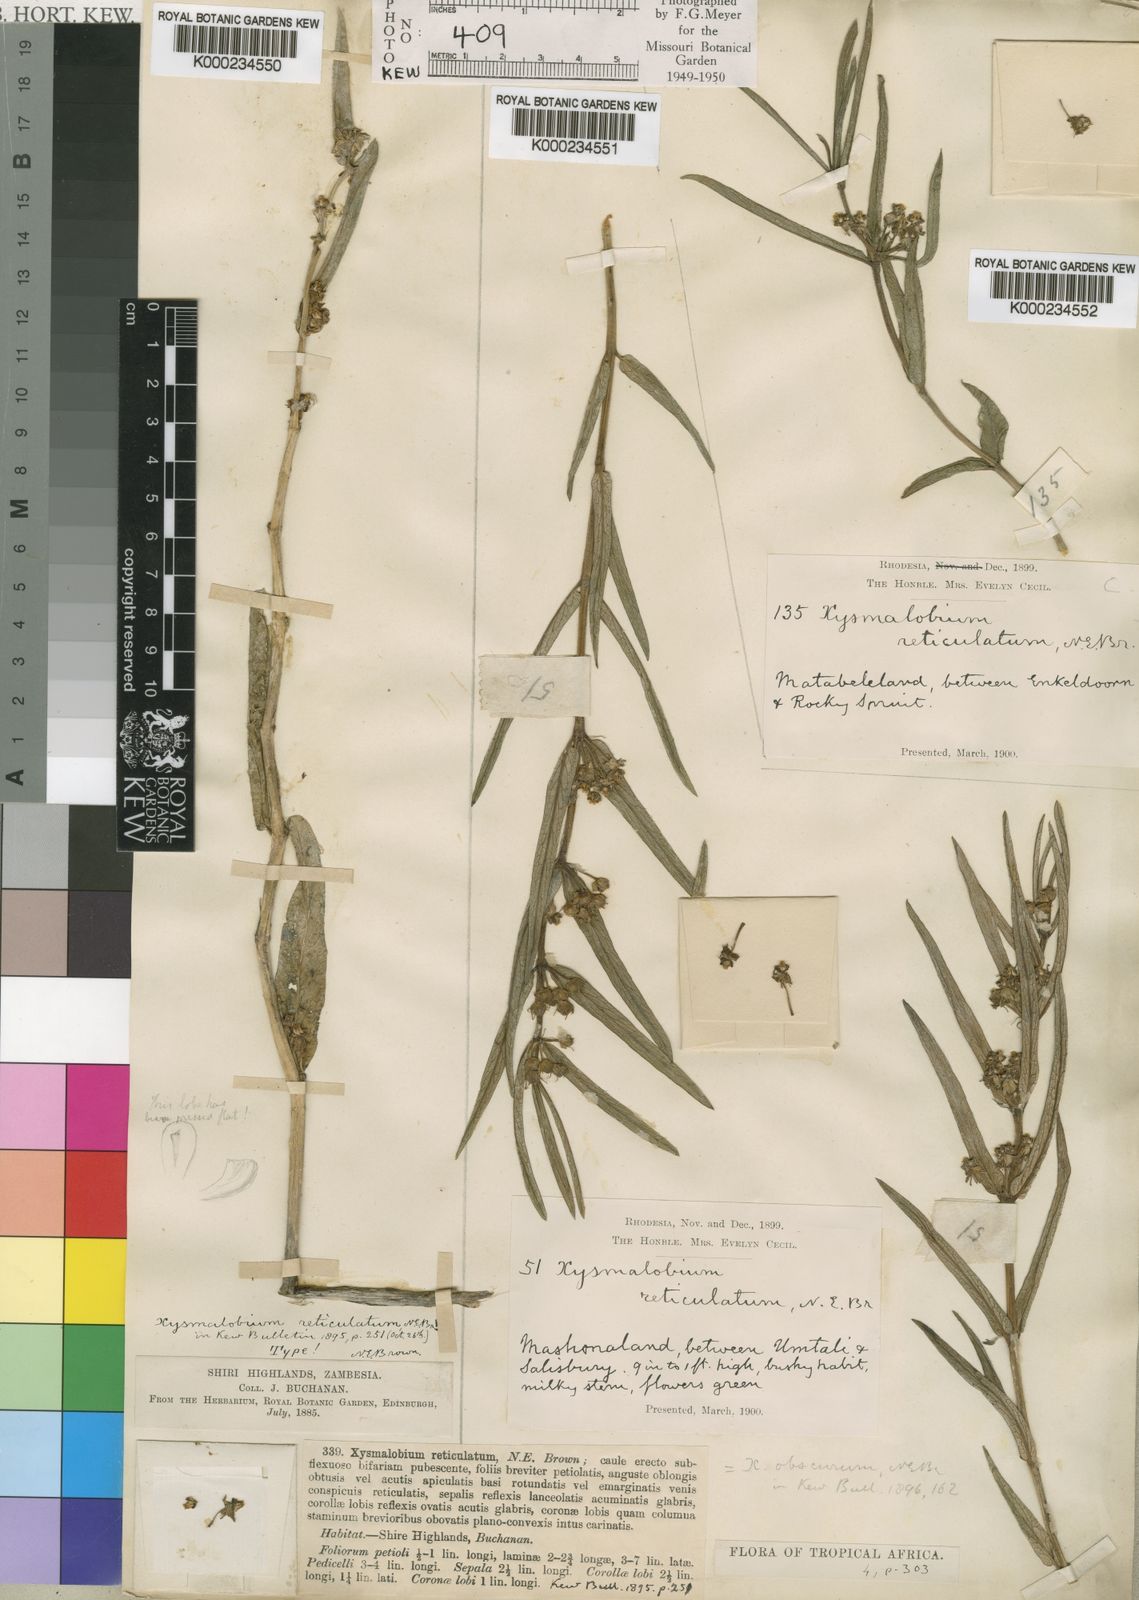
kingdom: Plantae
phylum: Tracheophyta
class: Magnoliopsida
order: Gentianales
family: Apocynaceae
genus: Xysmalobium
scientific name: Xysmalobium heudelotianum
